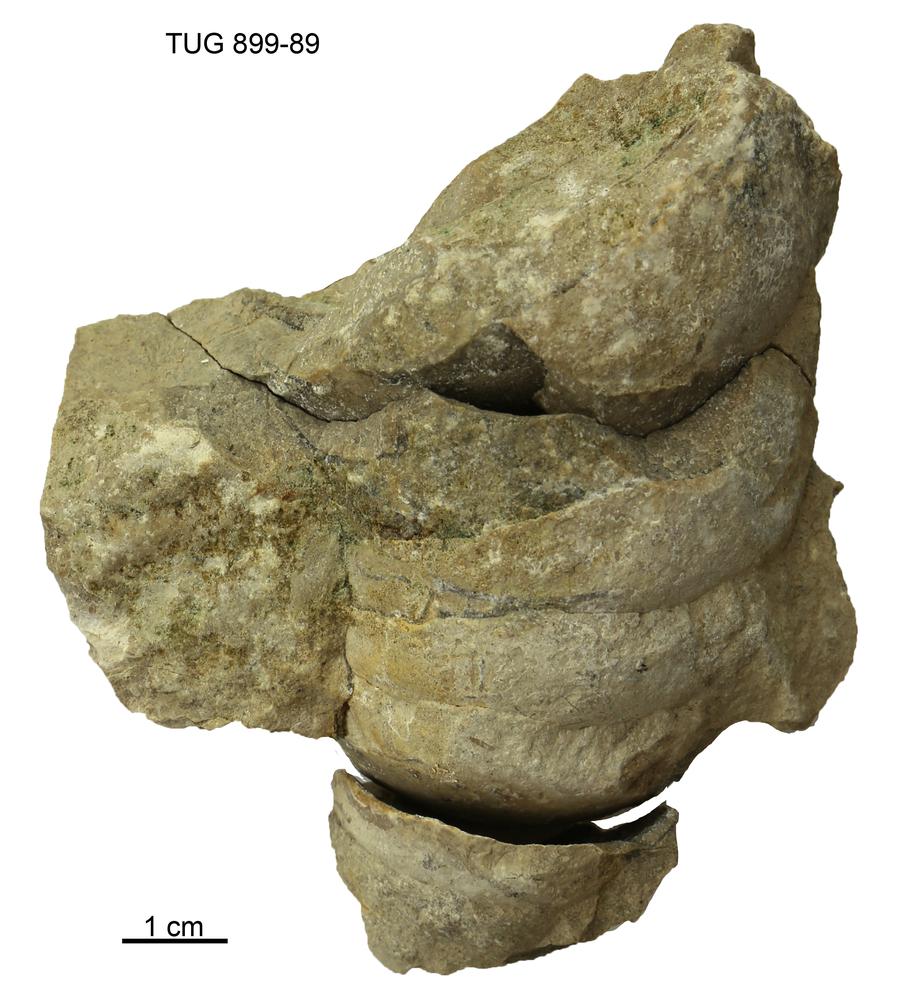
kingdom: Animalia
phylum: Mollusca
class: Cephalopoda
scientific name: Cephalopoda
